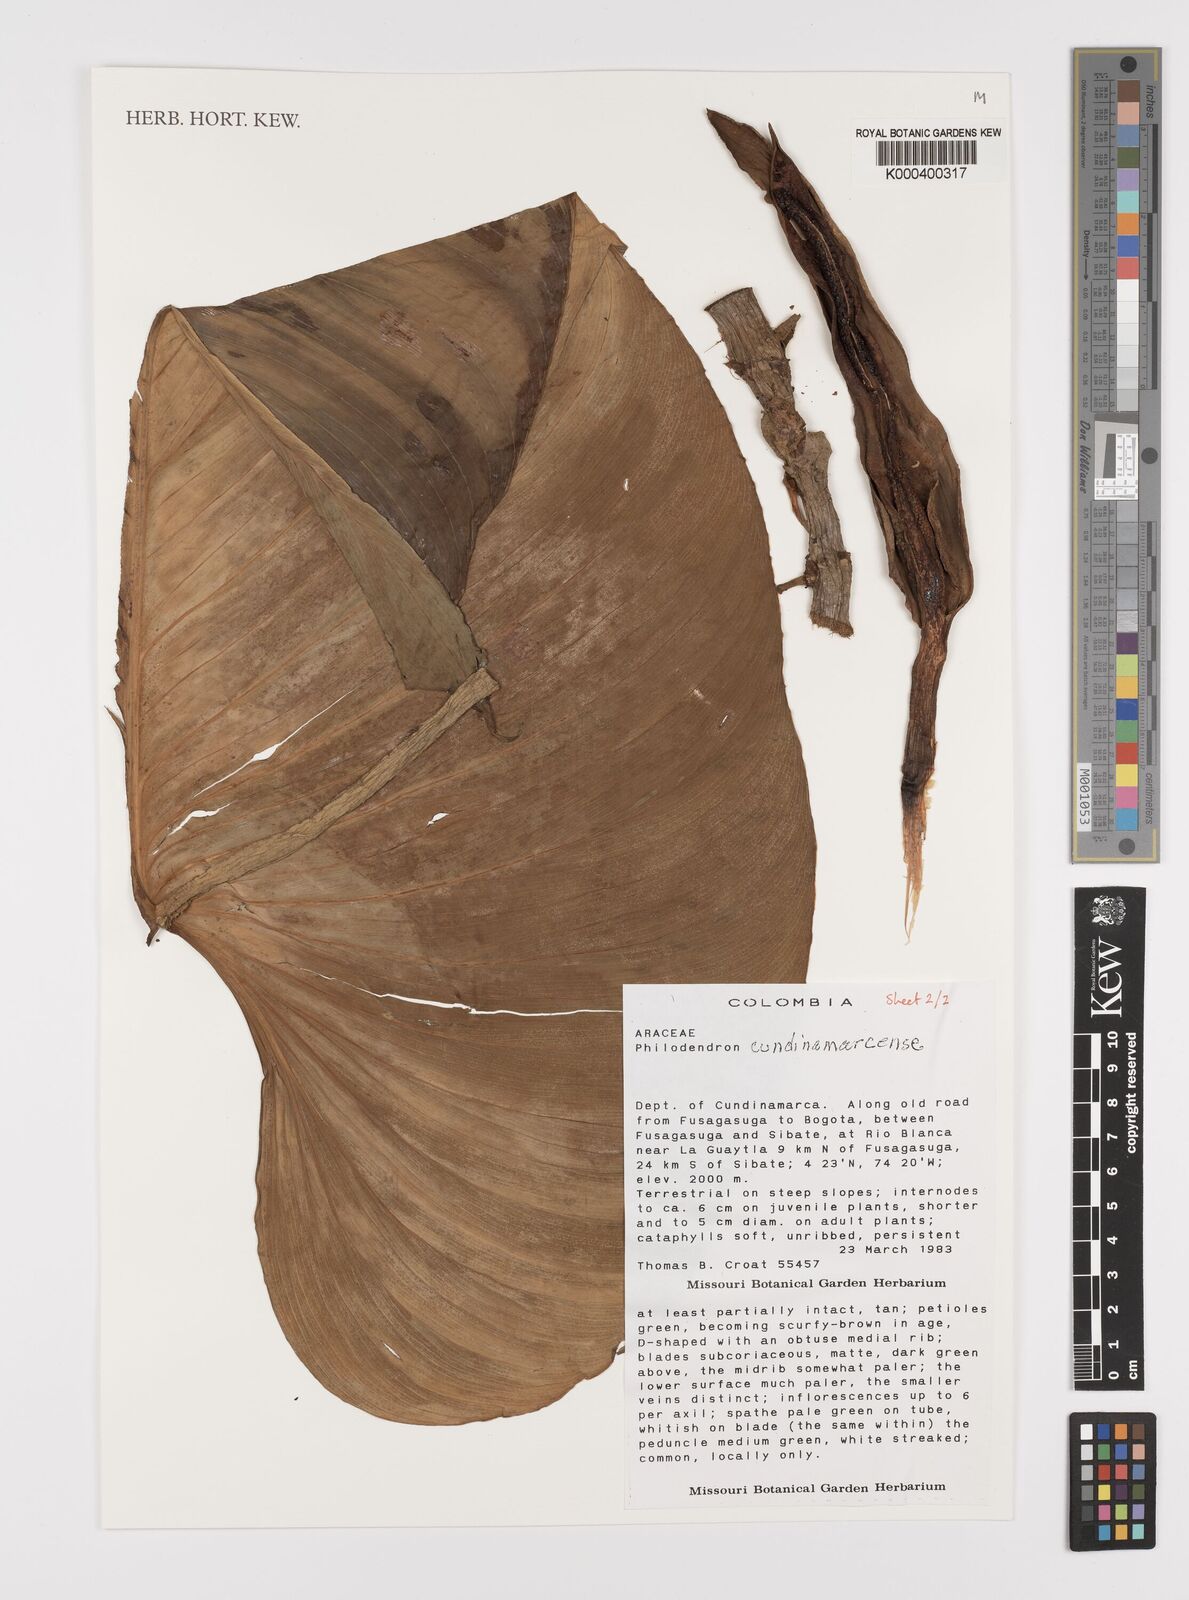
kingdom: Plantae
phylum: Tracheophyta
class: Liliopsida
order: Alismatales
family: Araceae
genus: Philodendron
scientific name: Philodendron
